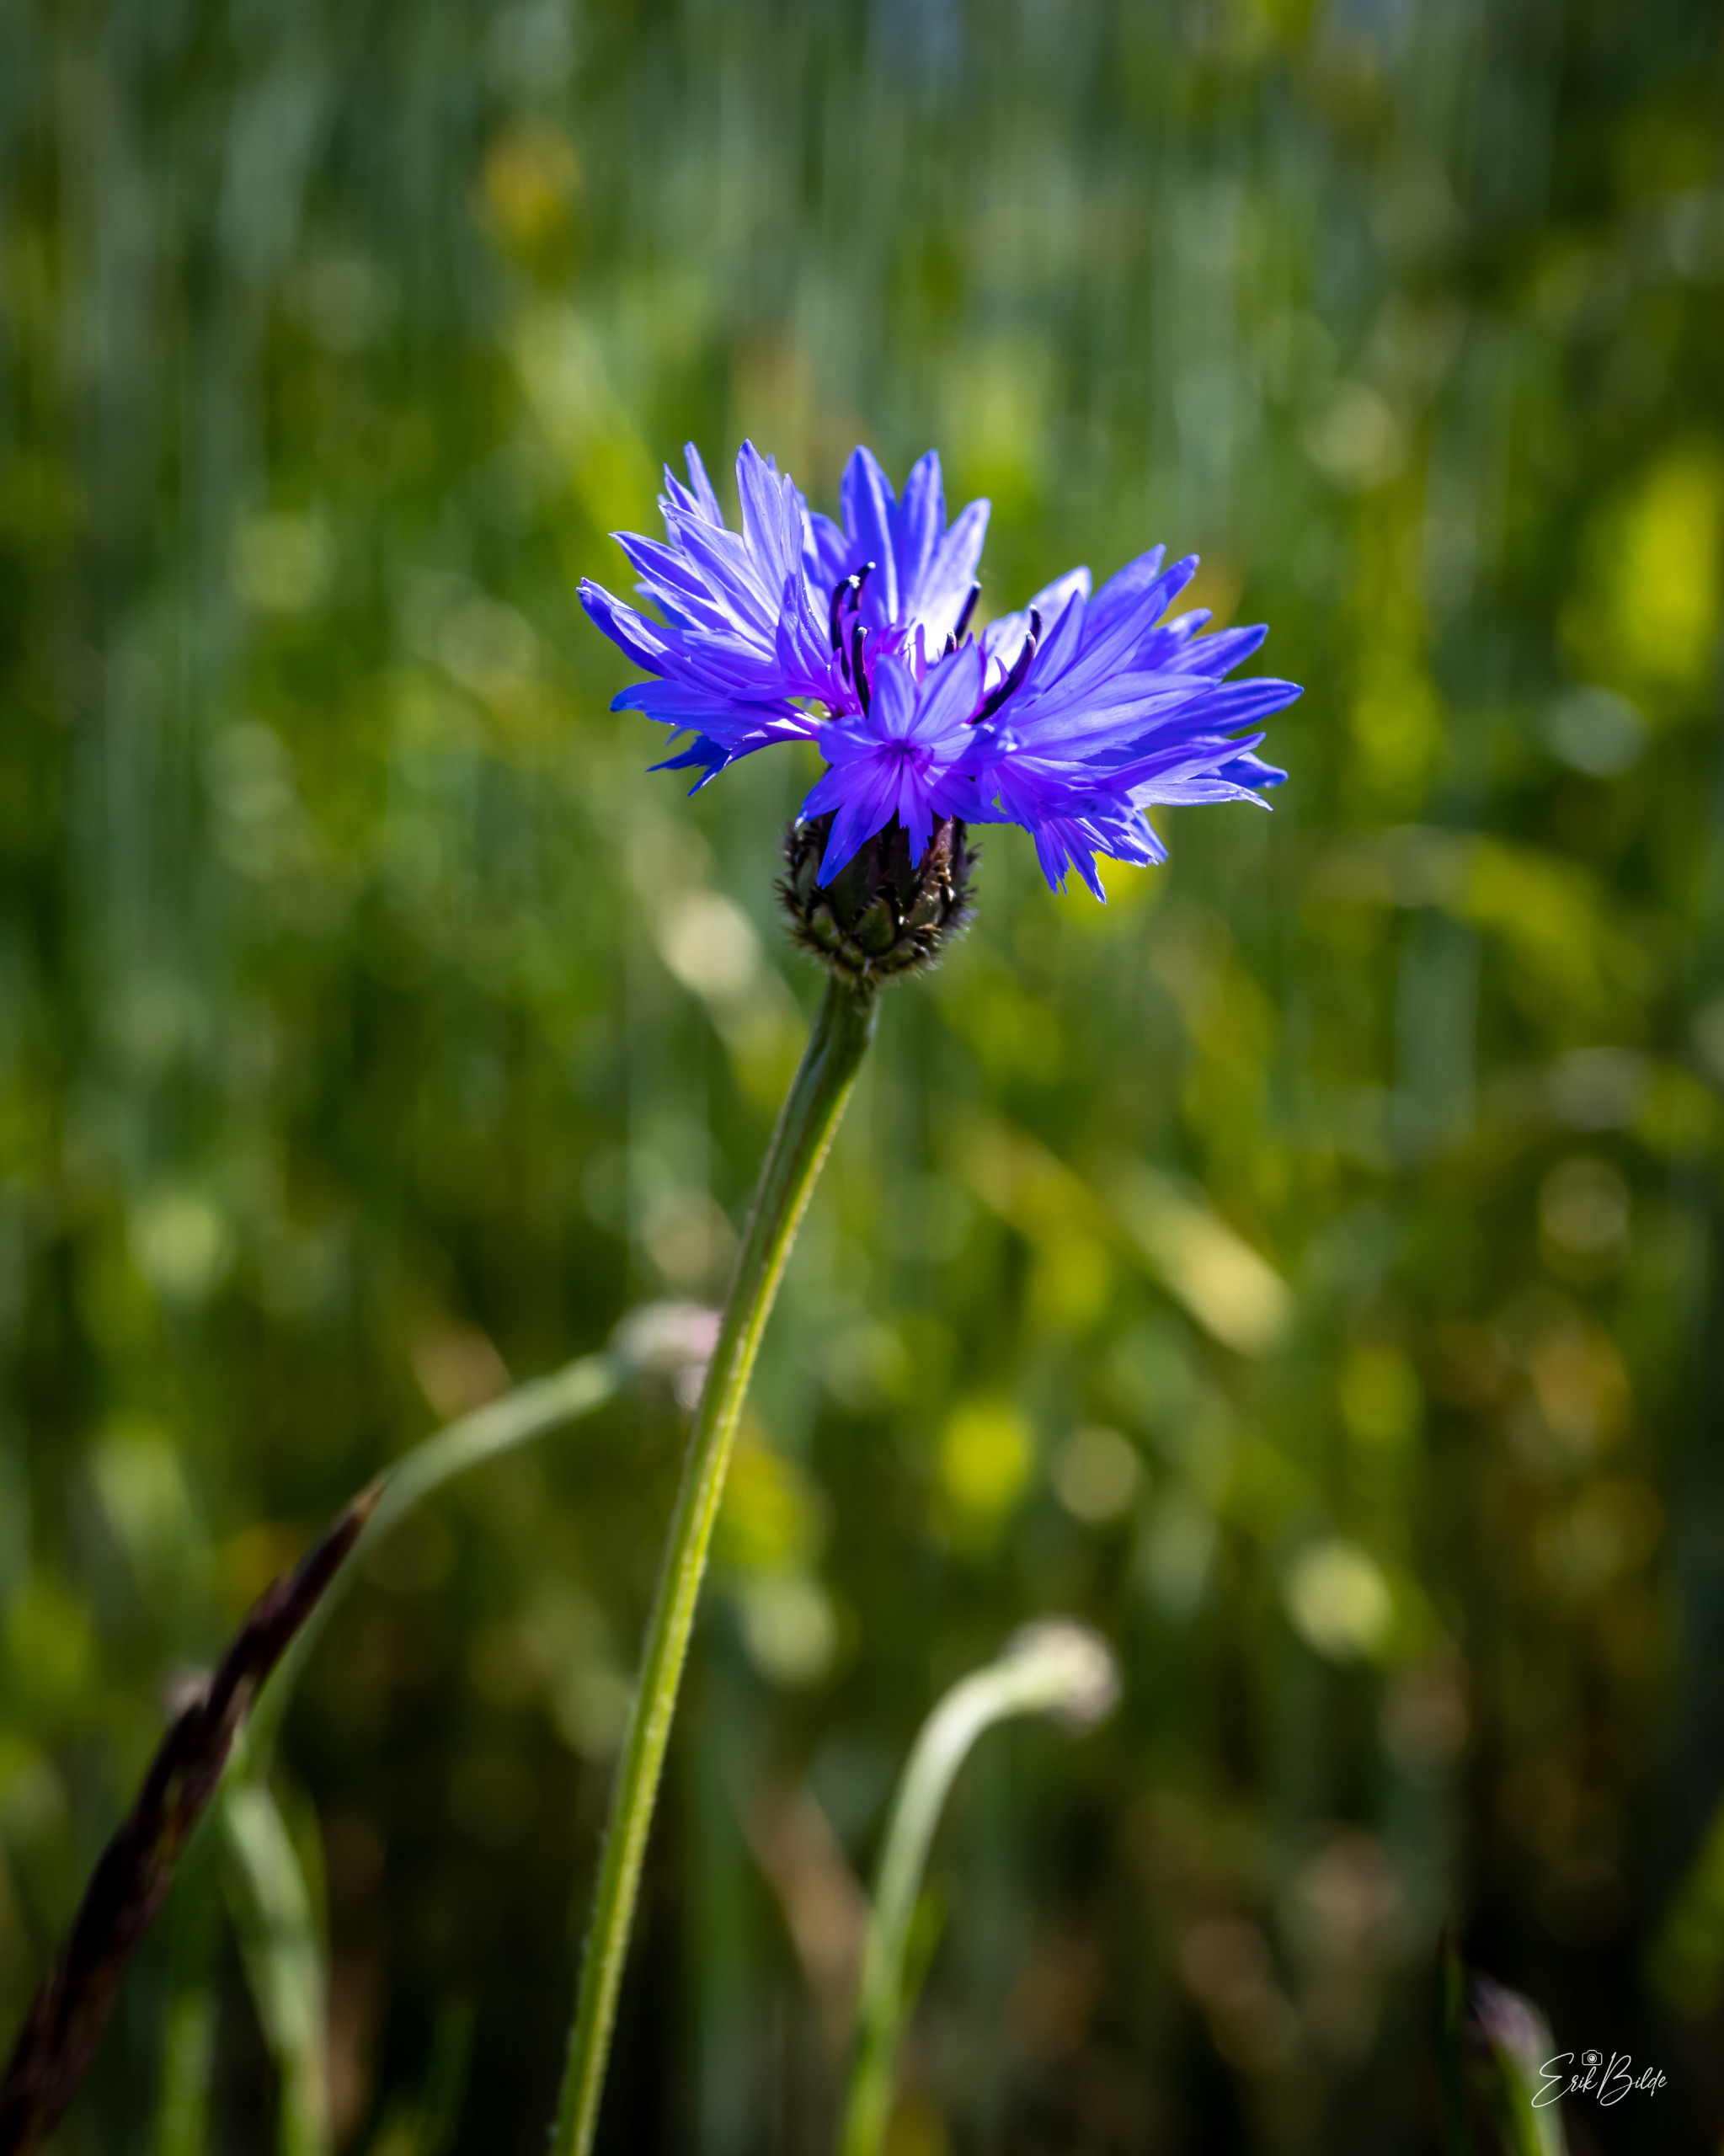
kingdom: Plantae
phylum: Tracheophyta
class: Magnoliopsida
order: Asterales
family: Asteraceae
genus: Centaurea
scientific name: Centaurea cyanus
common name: Kornblomst
